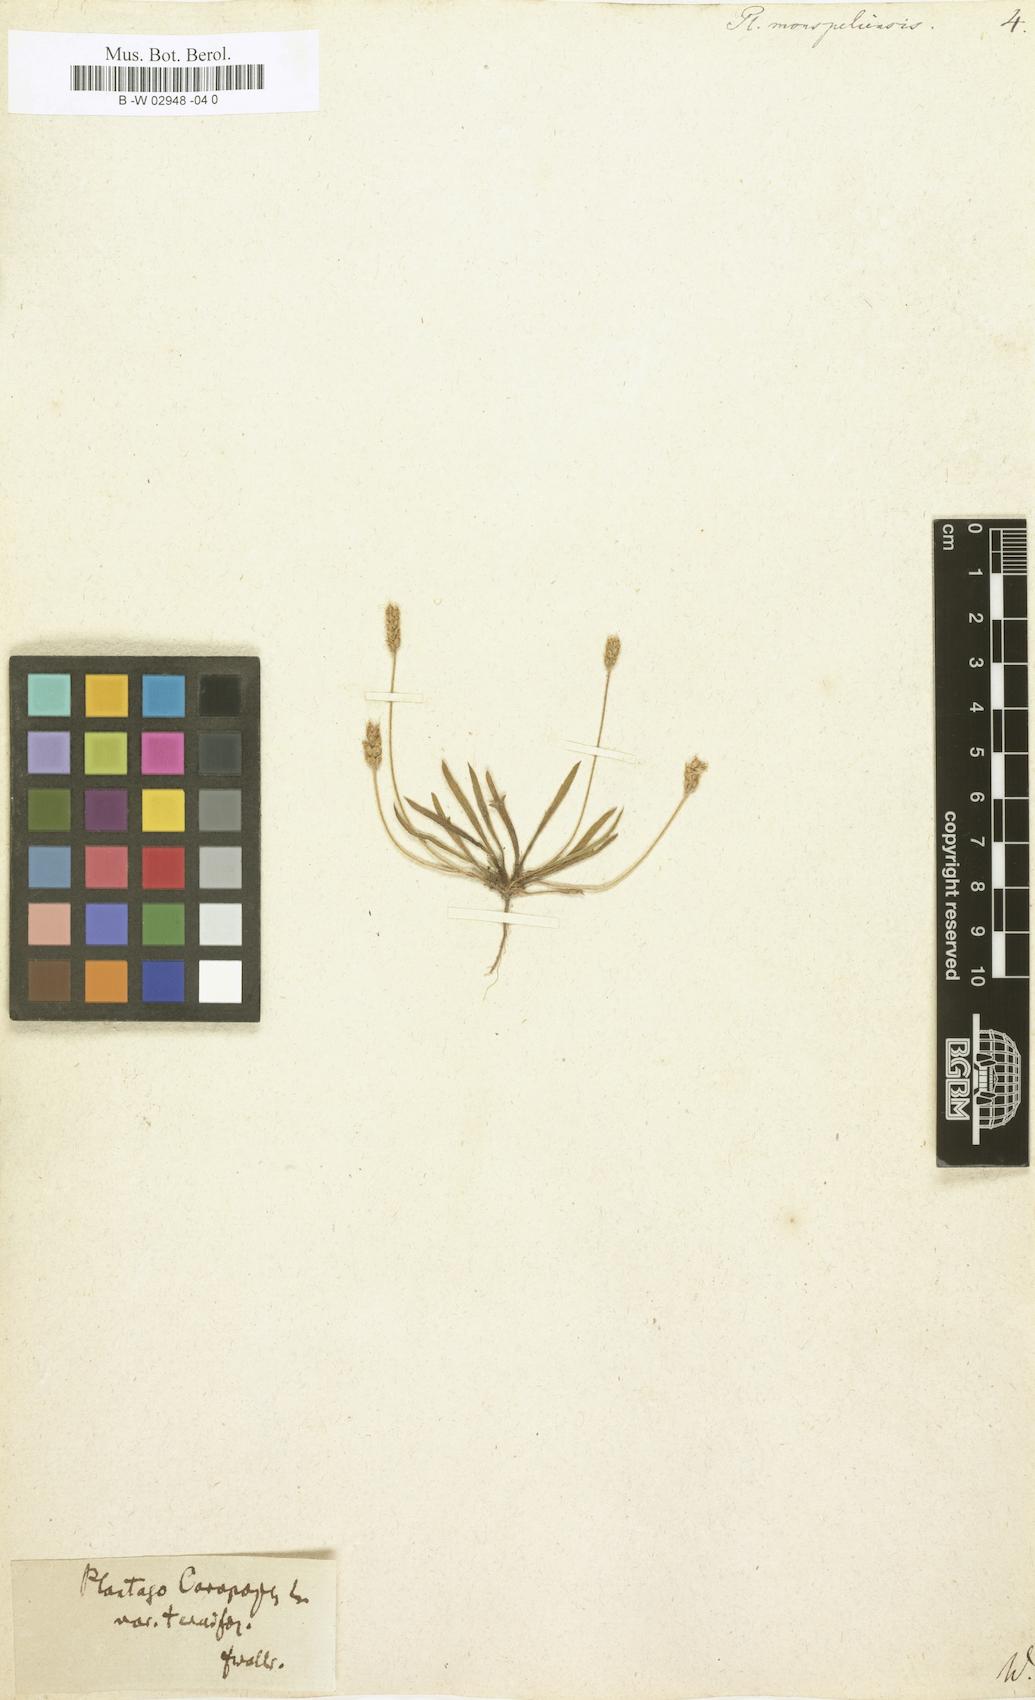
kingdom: Plantae
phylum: Tracheophyta
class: Magnoliopsida
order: Lamiales
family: Plantaginaceae
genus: Plantago
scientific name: Plantago ovata
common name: Blond plantain
